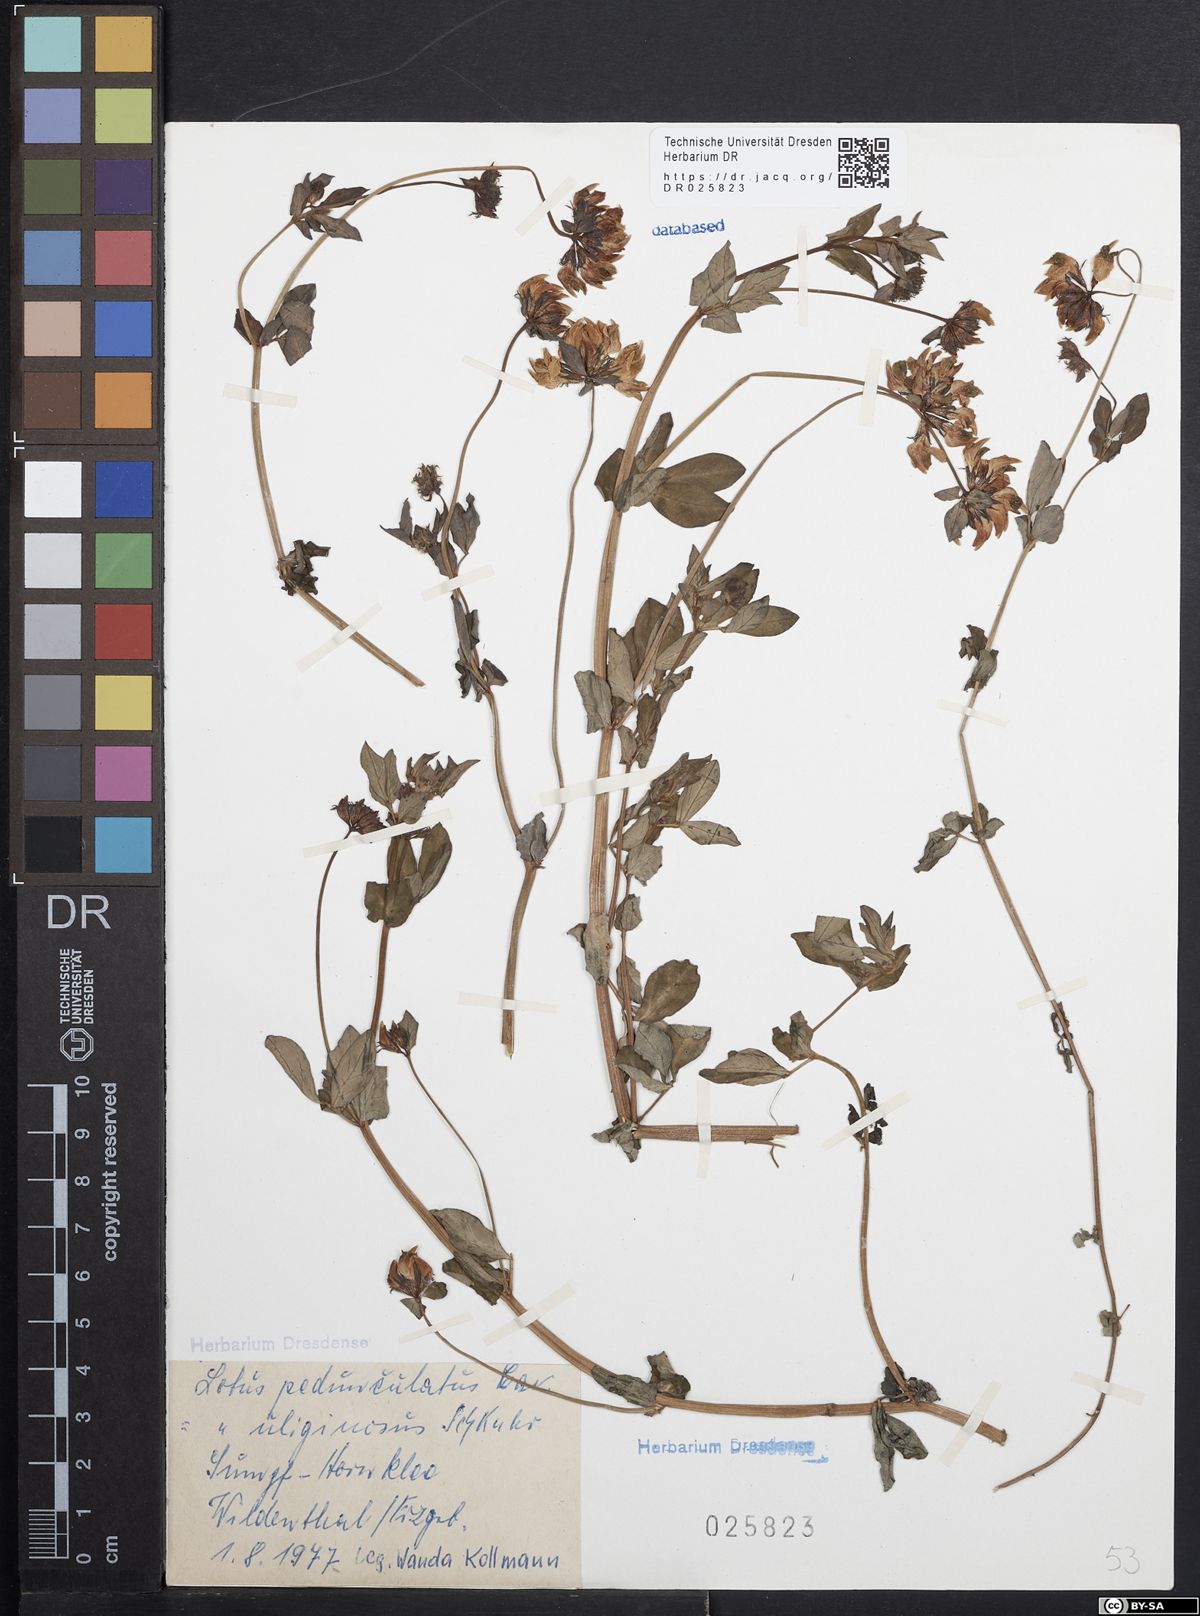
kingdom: Plantae
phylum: Tracheophyta
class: Magnoliopsida
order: Fabales
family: Fabaceae
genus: Lotus
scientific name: Lotus pedunculatus
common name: Greater birdsfoot-trefoil
